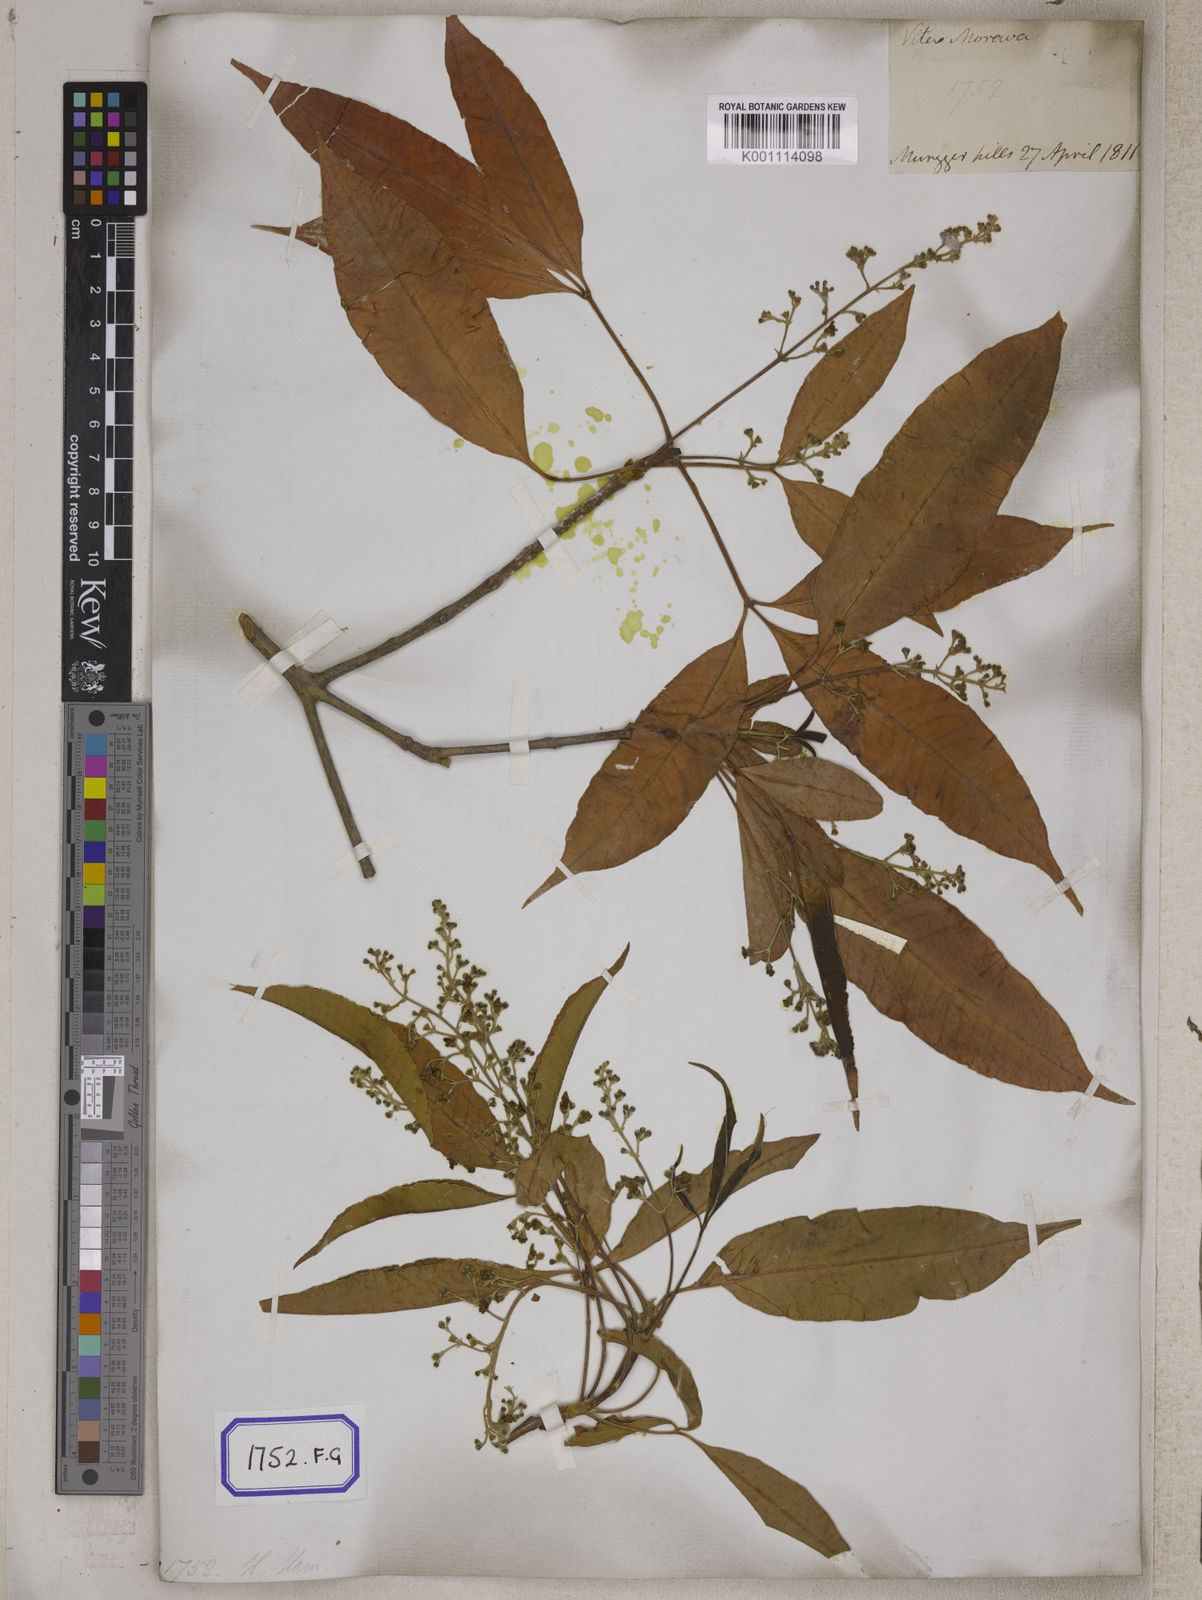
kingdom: Plantae
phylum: Tracheophyta
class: Magnoliopsida
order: Lamiales
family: Lamiaceae
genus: Vitex
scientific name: Vitex peduncularis
